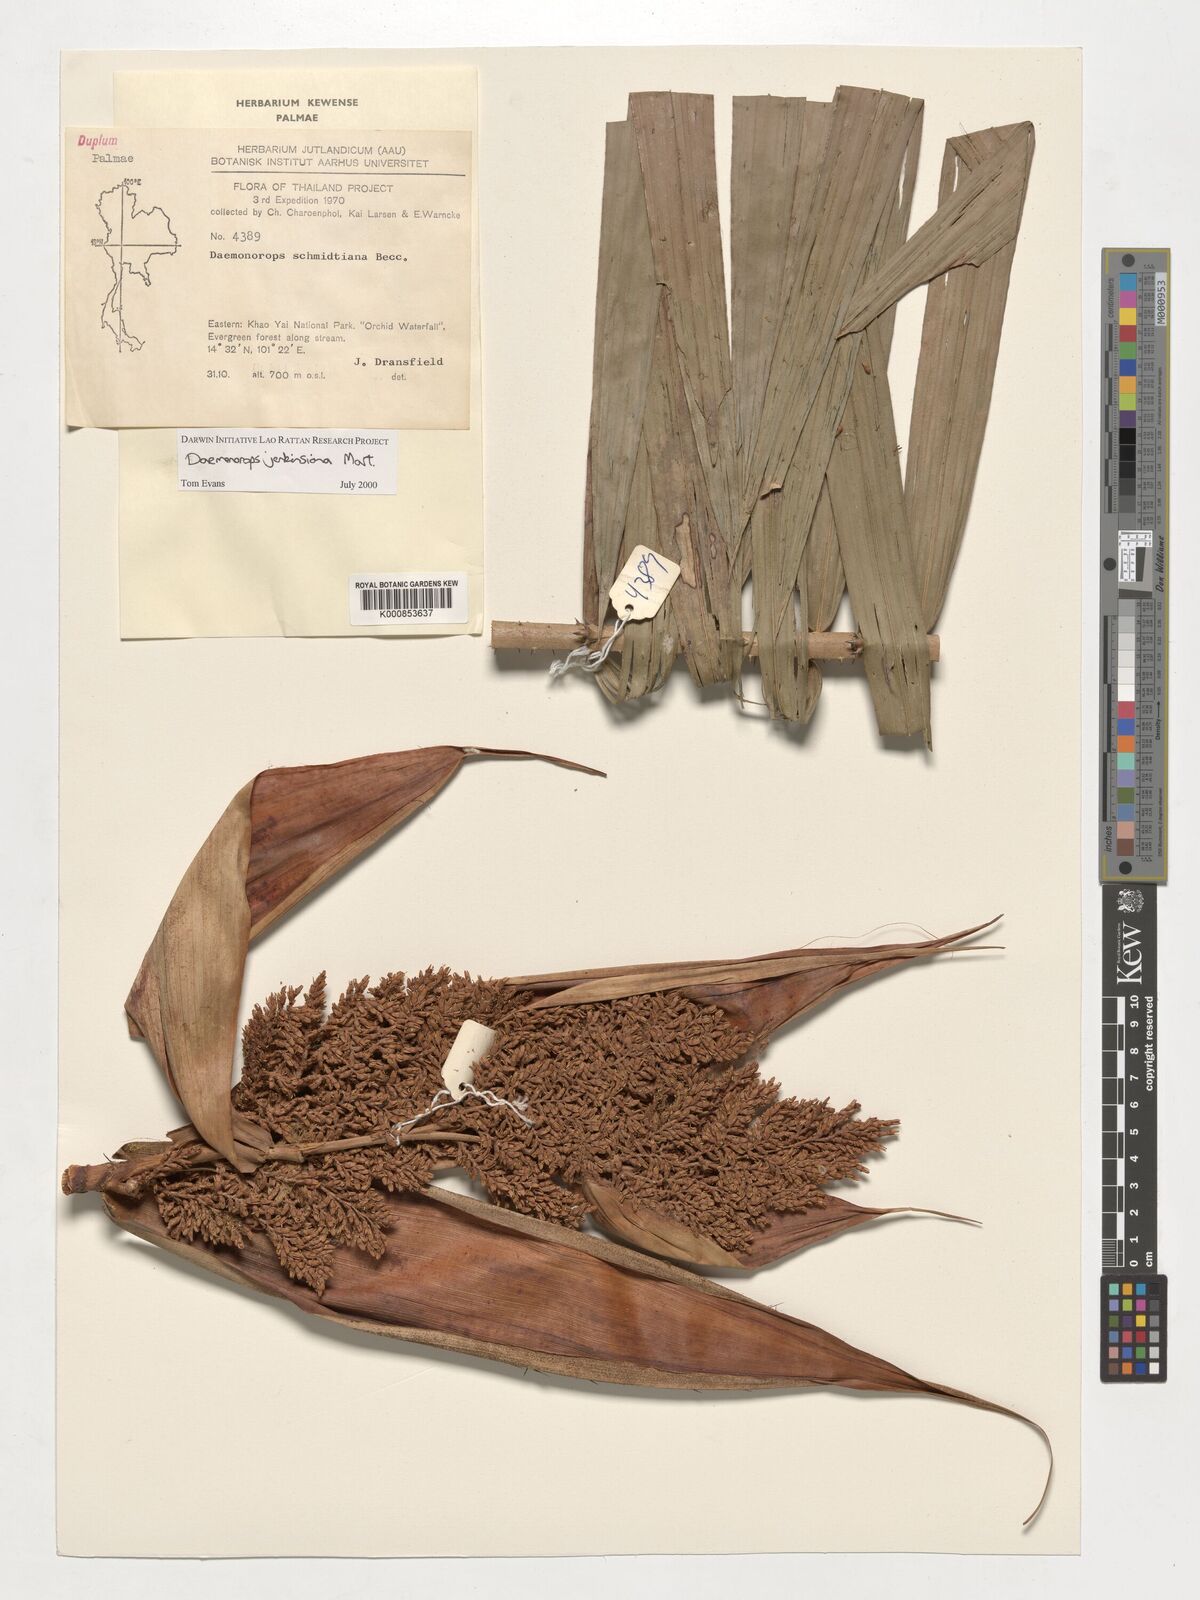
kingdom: Plantae
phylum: Tracheophyta
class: Liliopsida
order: Arecales
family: Arecaceae
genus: Calamus
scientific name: Calamus melanochaetes
